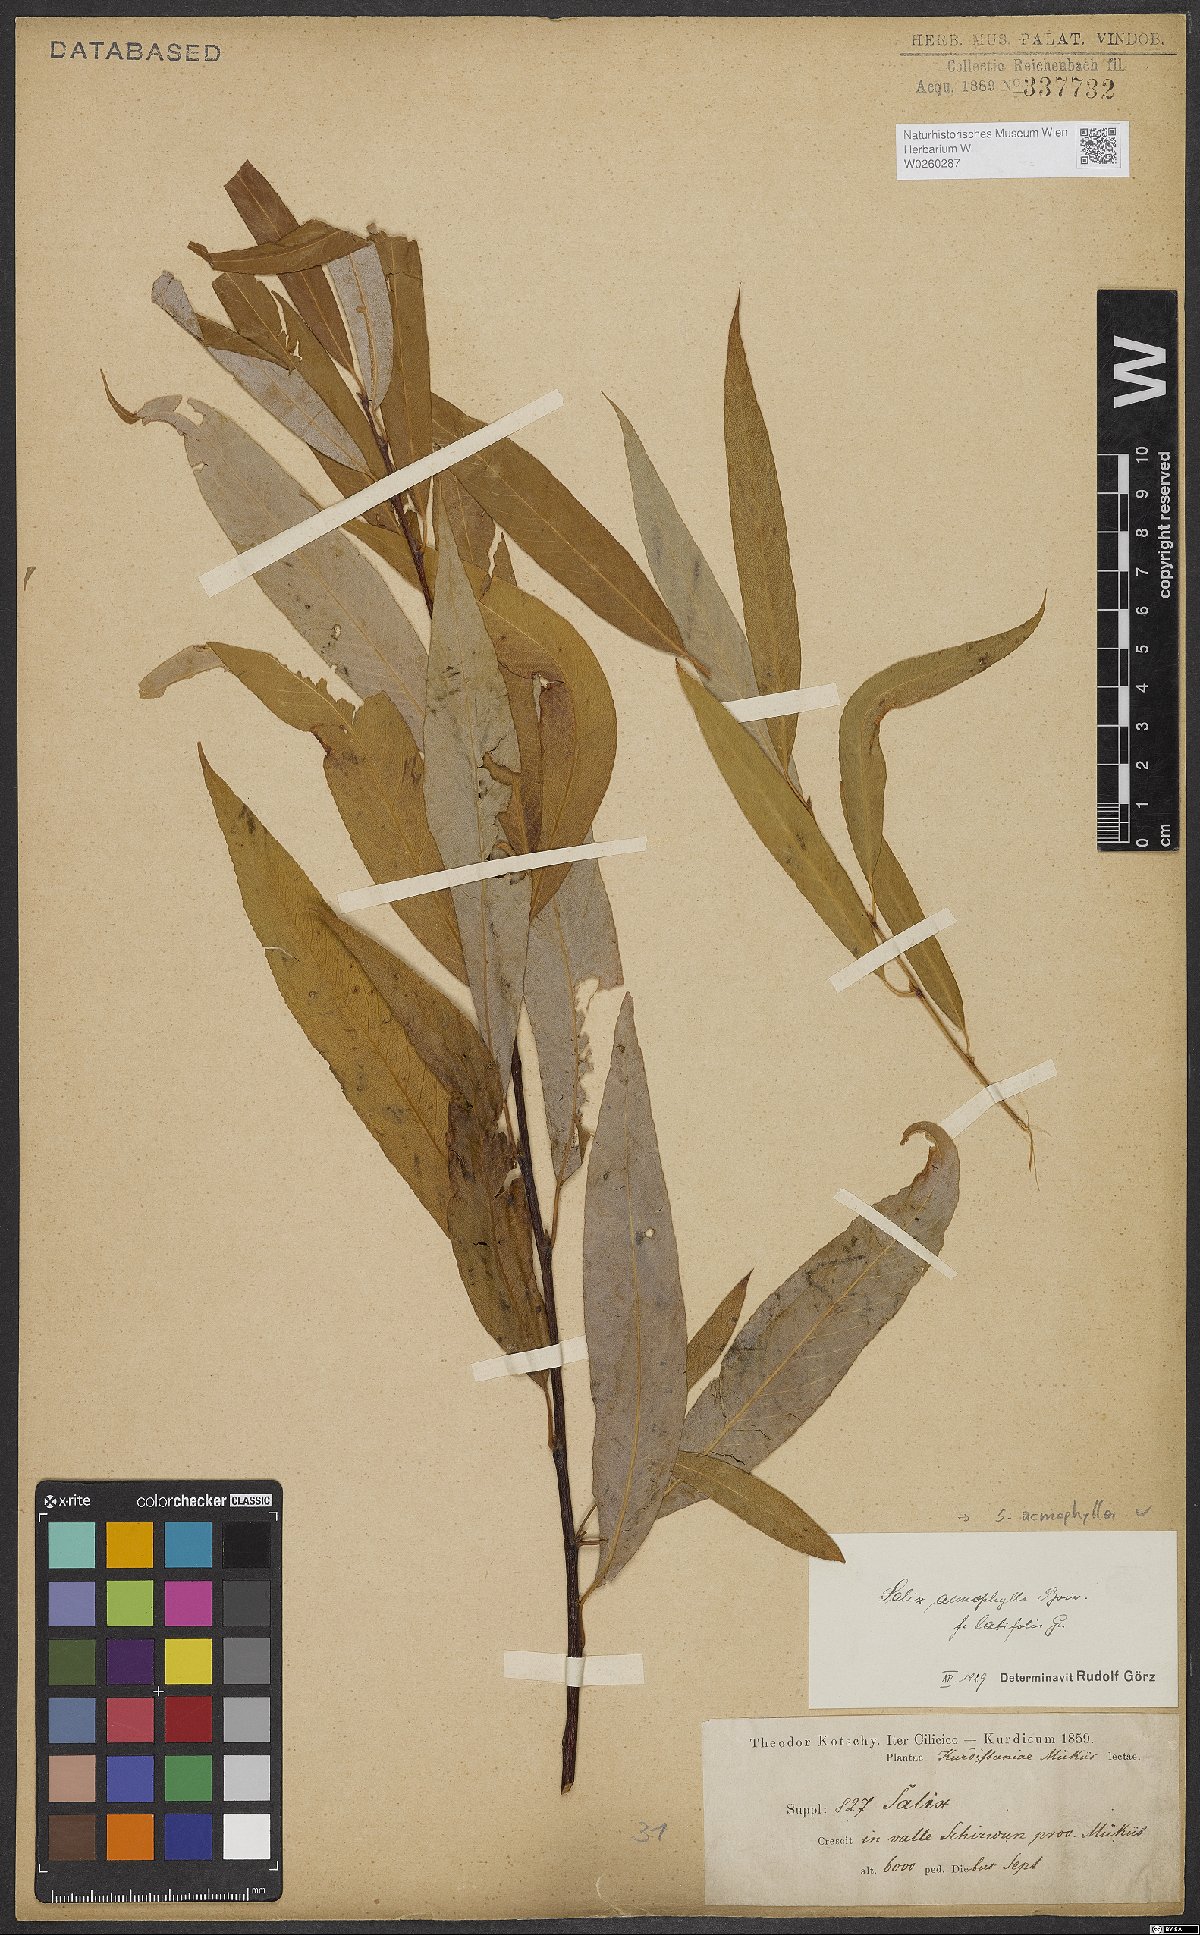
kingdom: Plantae
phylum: Tracheophyta
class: Magnoliopsida
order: Malpighiales
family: Salicaceae
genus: Salix
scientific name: Salix acmophylla
